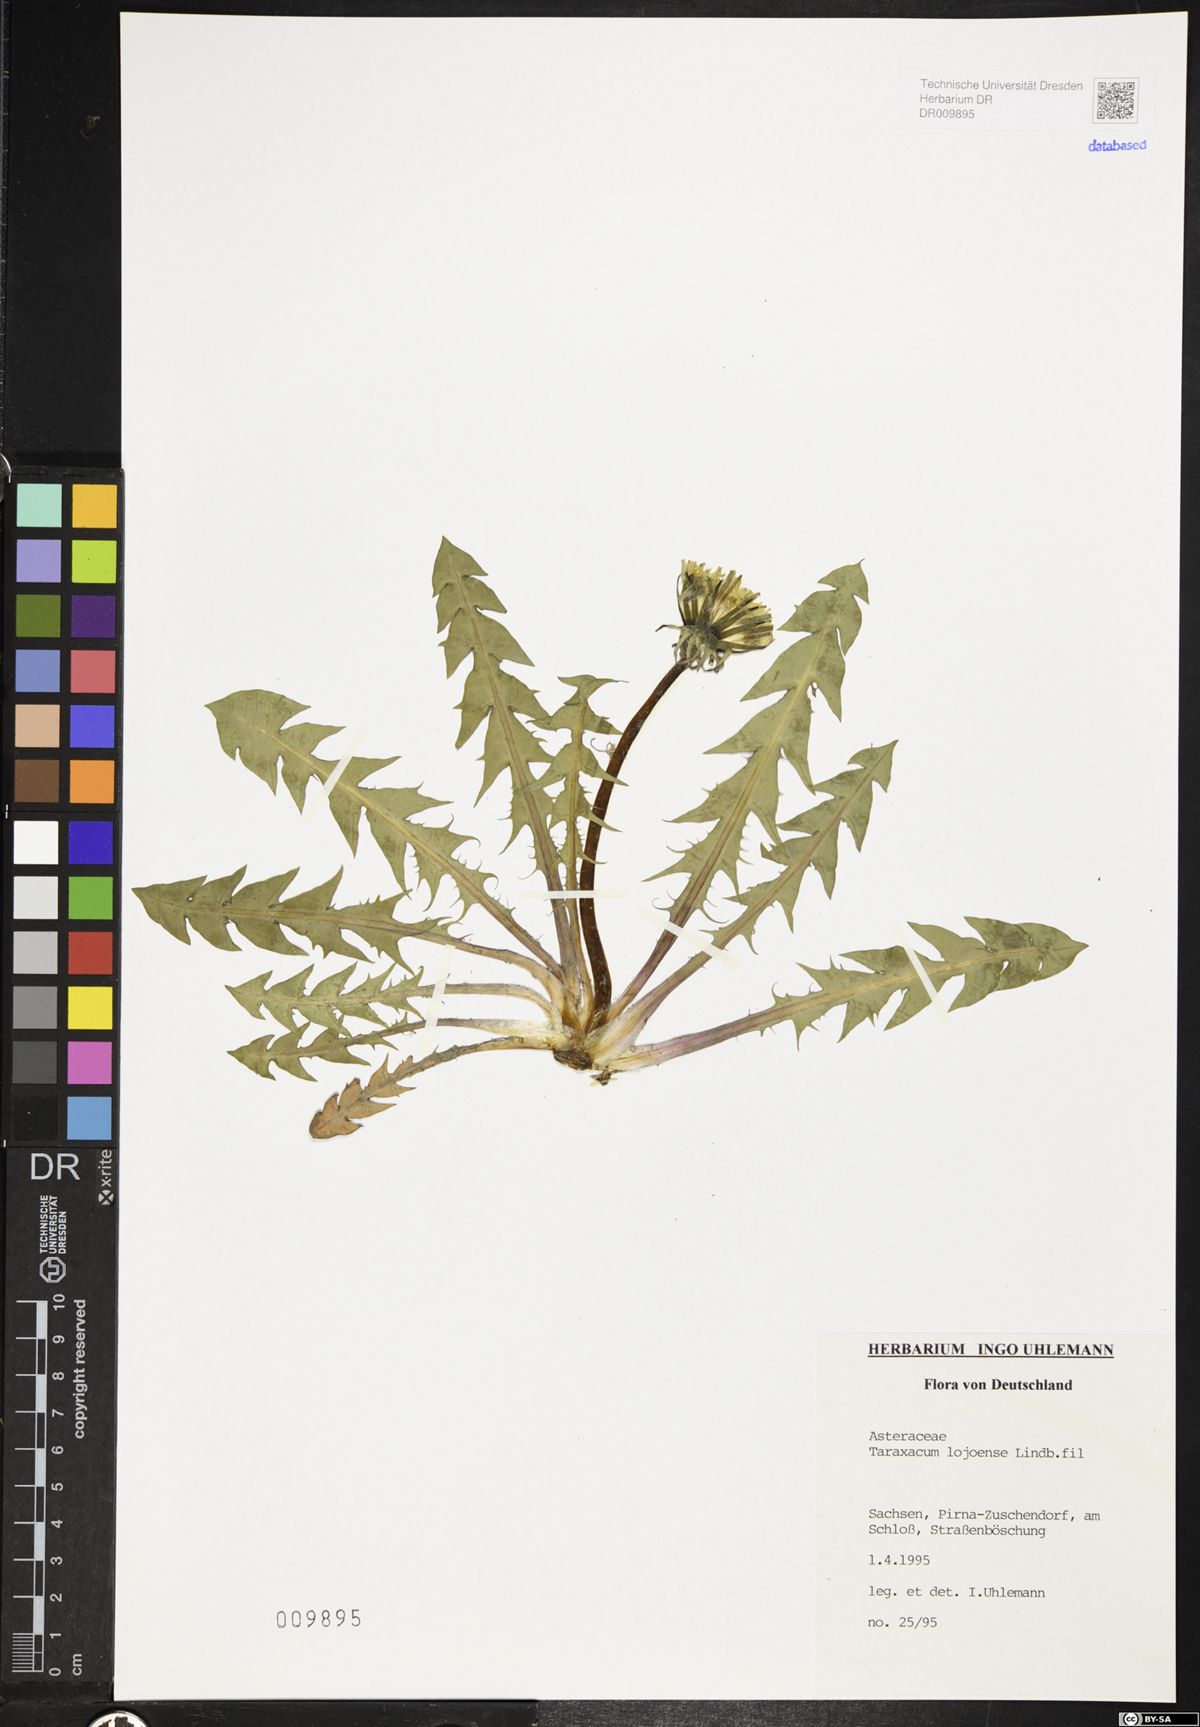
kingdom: Plantae
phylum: Tracheophyta
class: Magnoliopsida
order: Asterales
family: Asteraceae
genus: Taraxacum
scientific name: Taraxacum debrayi
